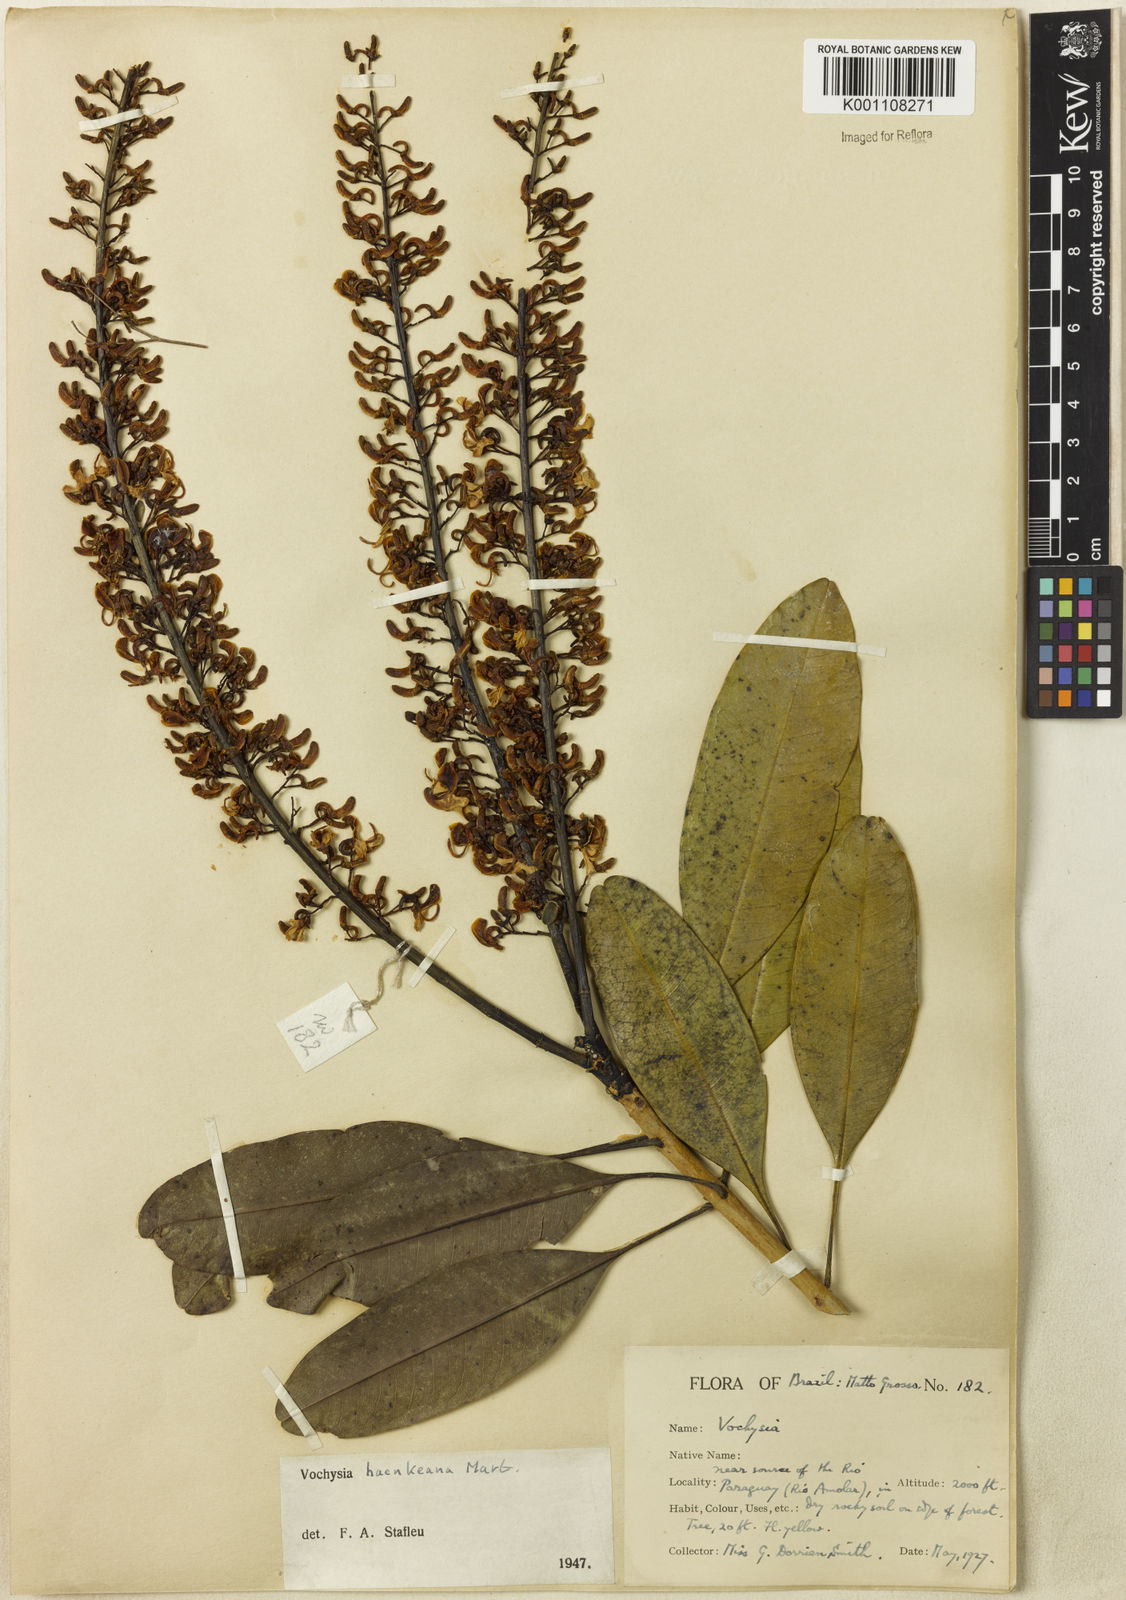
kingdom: Plantae
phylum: Tracheophyta
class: Magnoliopsida
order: Myrtales
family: Vochysiaceae
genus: Vochysia
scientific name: Vochysia haenkeana
